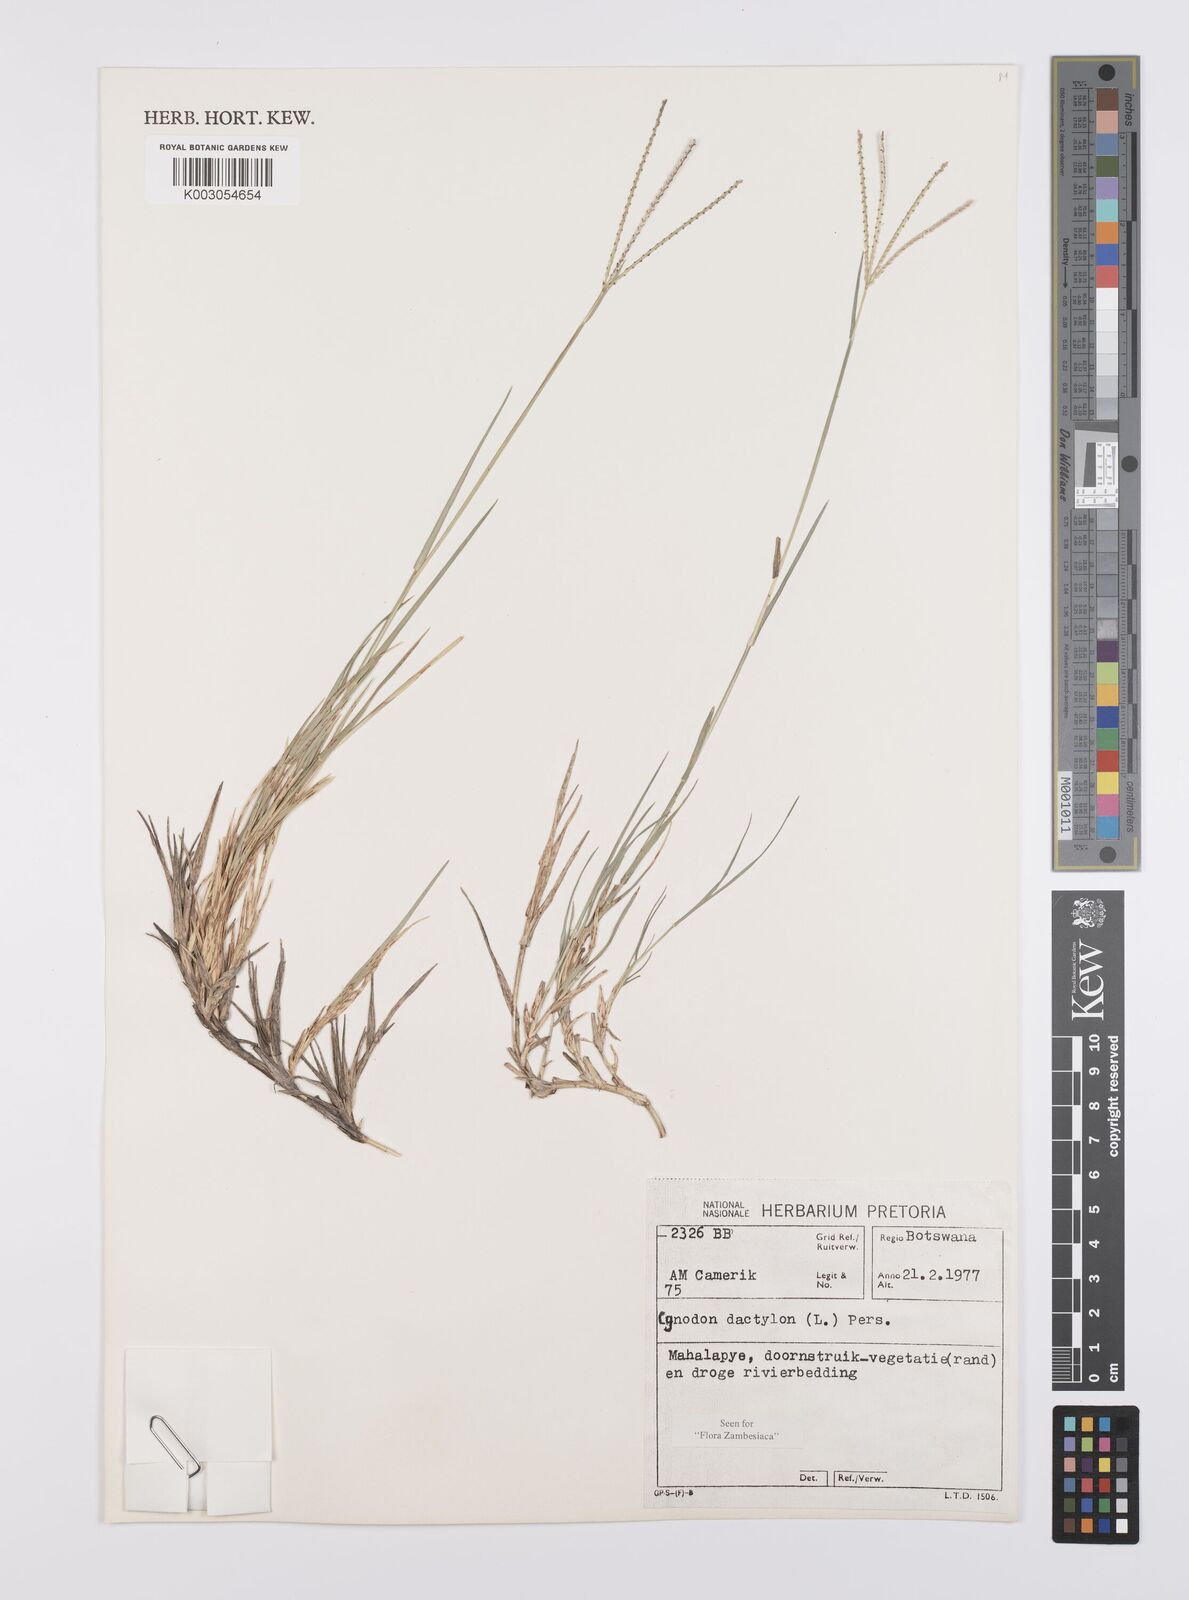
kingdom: Plantae
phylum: Tracheophyta
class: Liliopsida
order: Poales
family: Poaceae
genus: Cynodon
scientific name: Cynodon dactylon
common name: Bermuda grass
